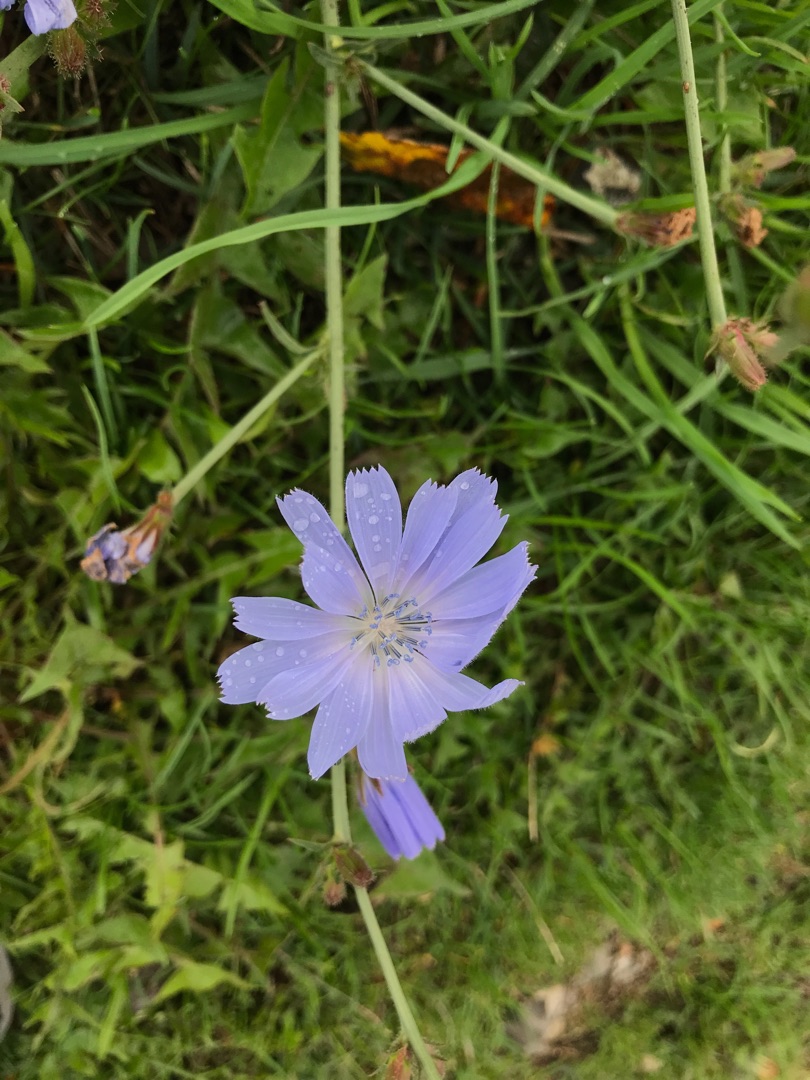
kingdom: Plantae
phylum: Tracheophyta
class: Magnoliopsida
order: Asterales
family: Asteraceae
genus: Cichorium
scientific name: Cichorium intybus
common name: Cikorie
